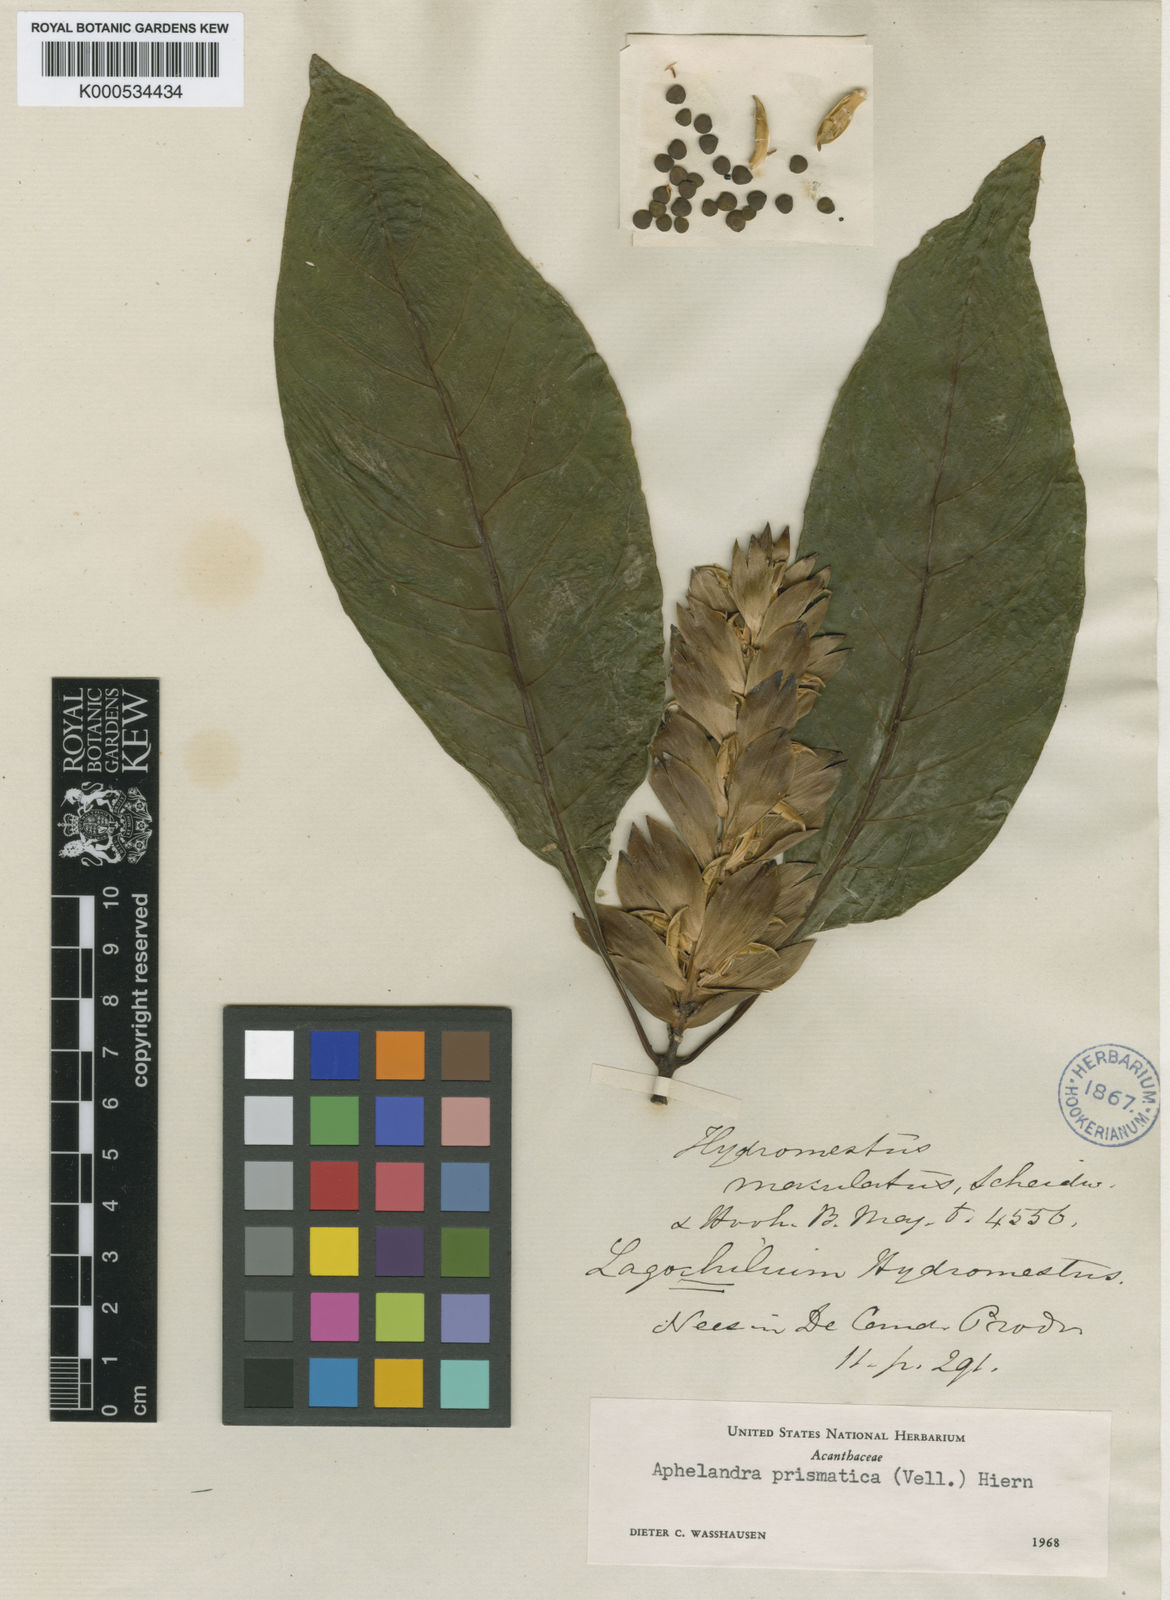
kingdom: Plantae
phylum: Tracheophyta
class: Magnoliopsida
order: Lamiales
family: Acanthaceae
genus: Aphelandra
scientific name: Aphelandra prismatica
